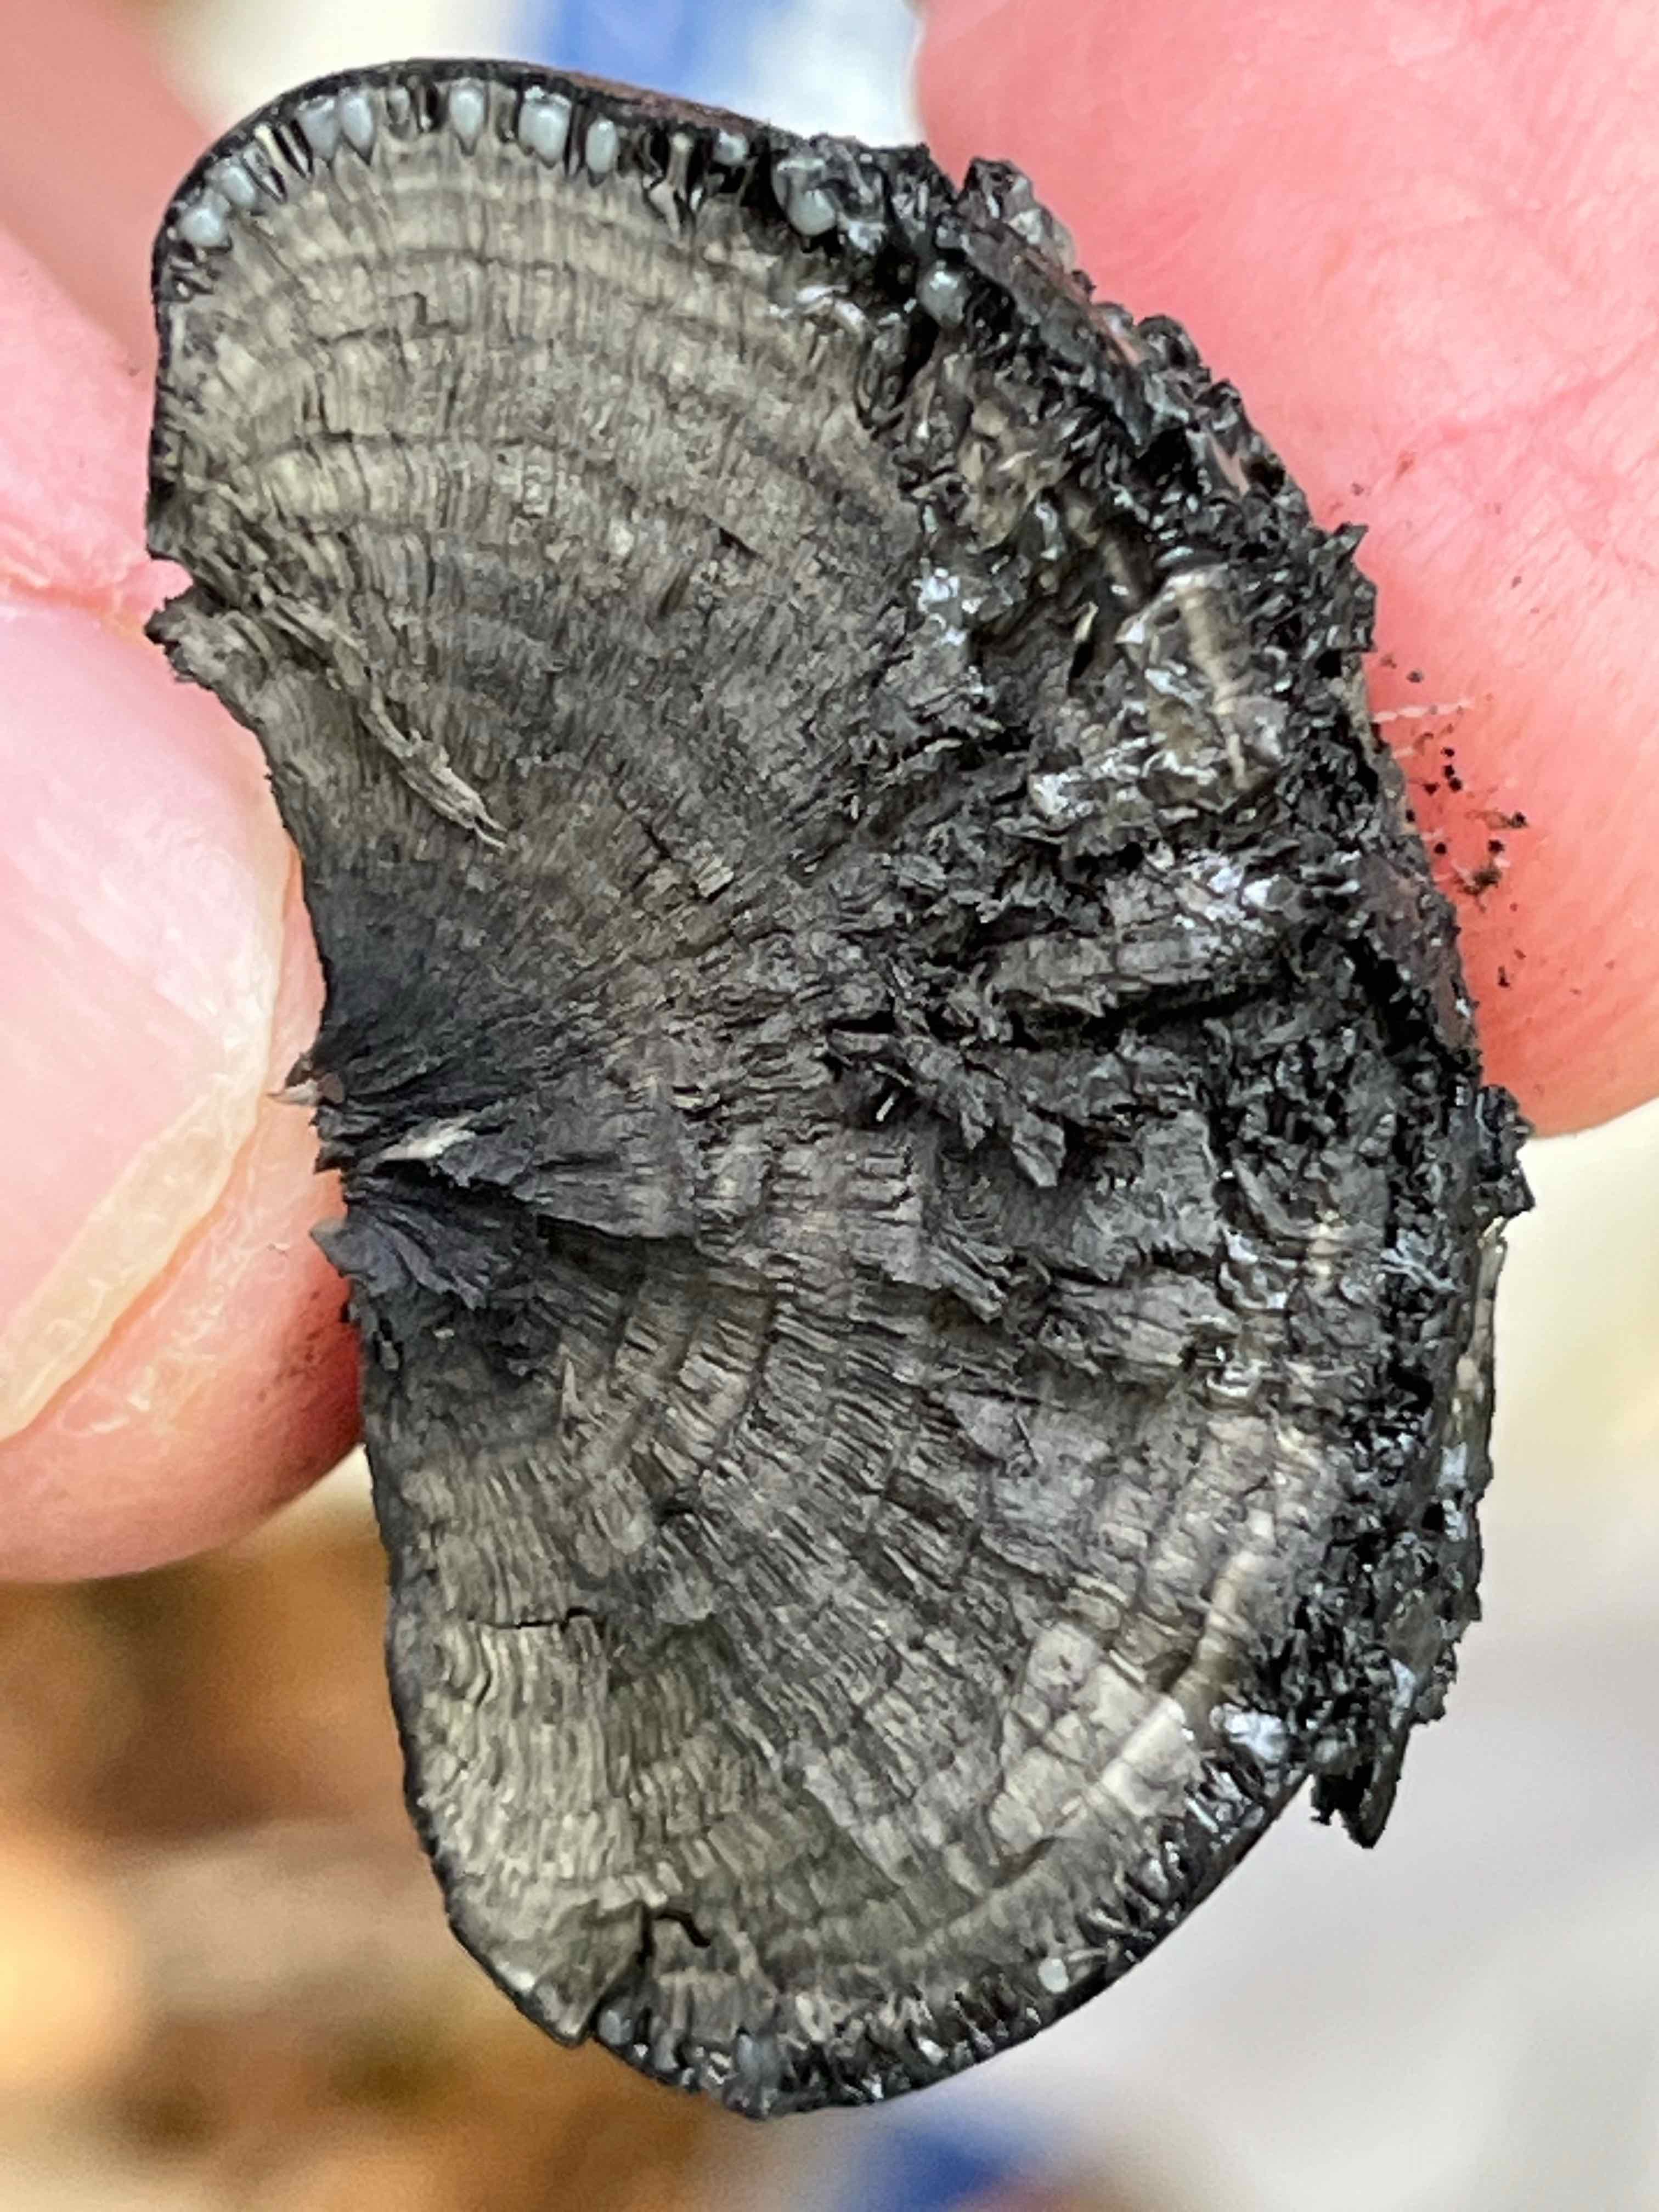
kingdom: Fungi
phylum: Ascomycota
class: Sordariomycetes
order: Xylariales
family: Hypoxylaceae
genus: Daldinia
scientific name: Daldinia concentrica
